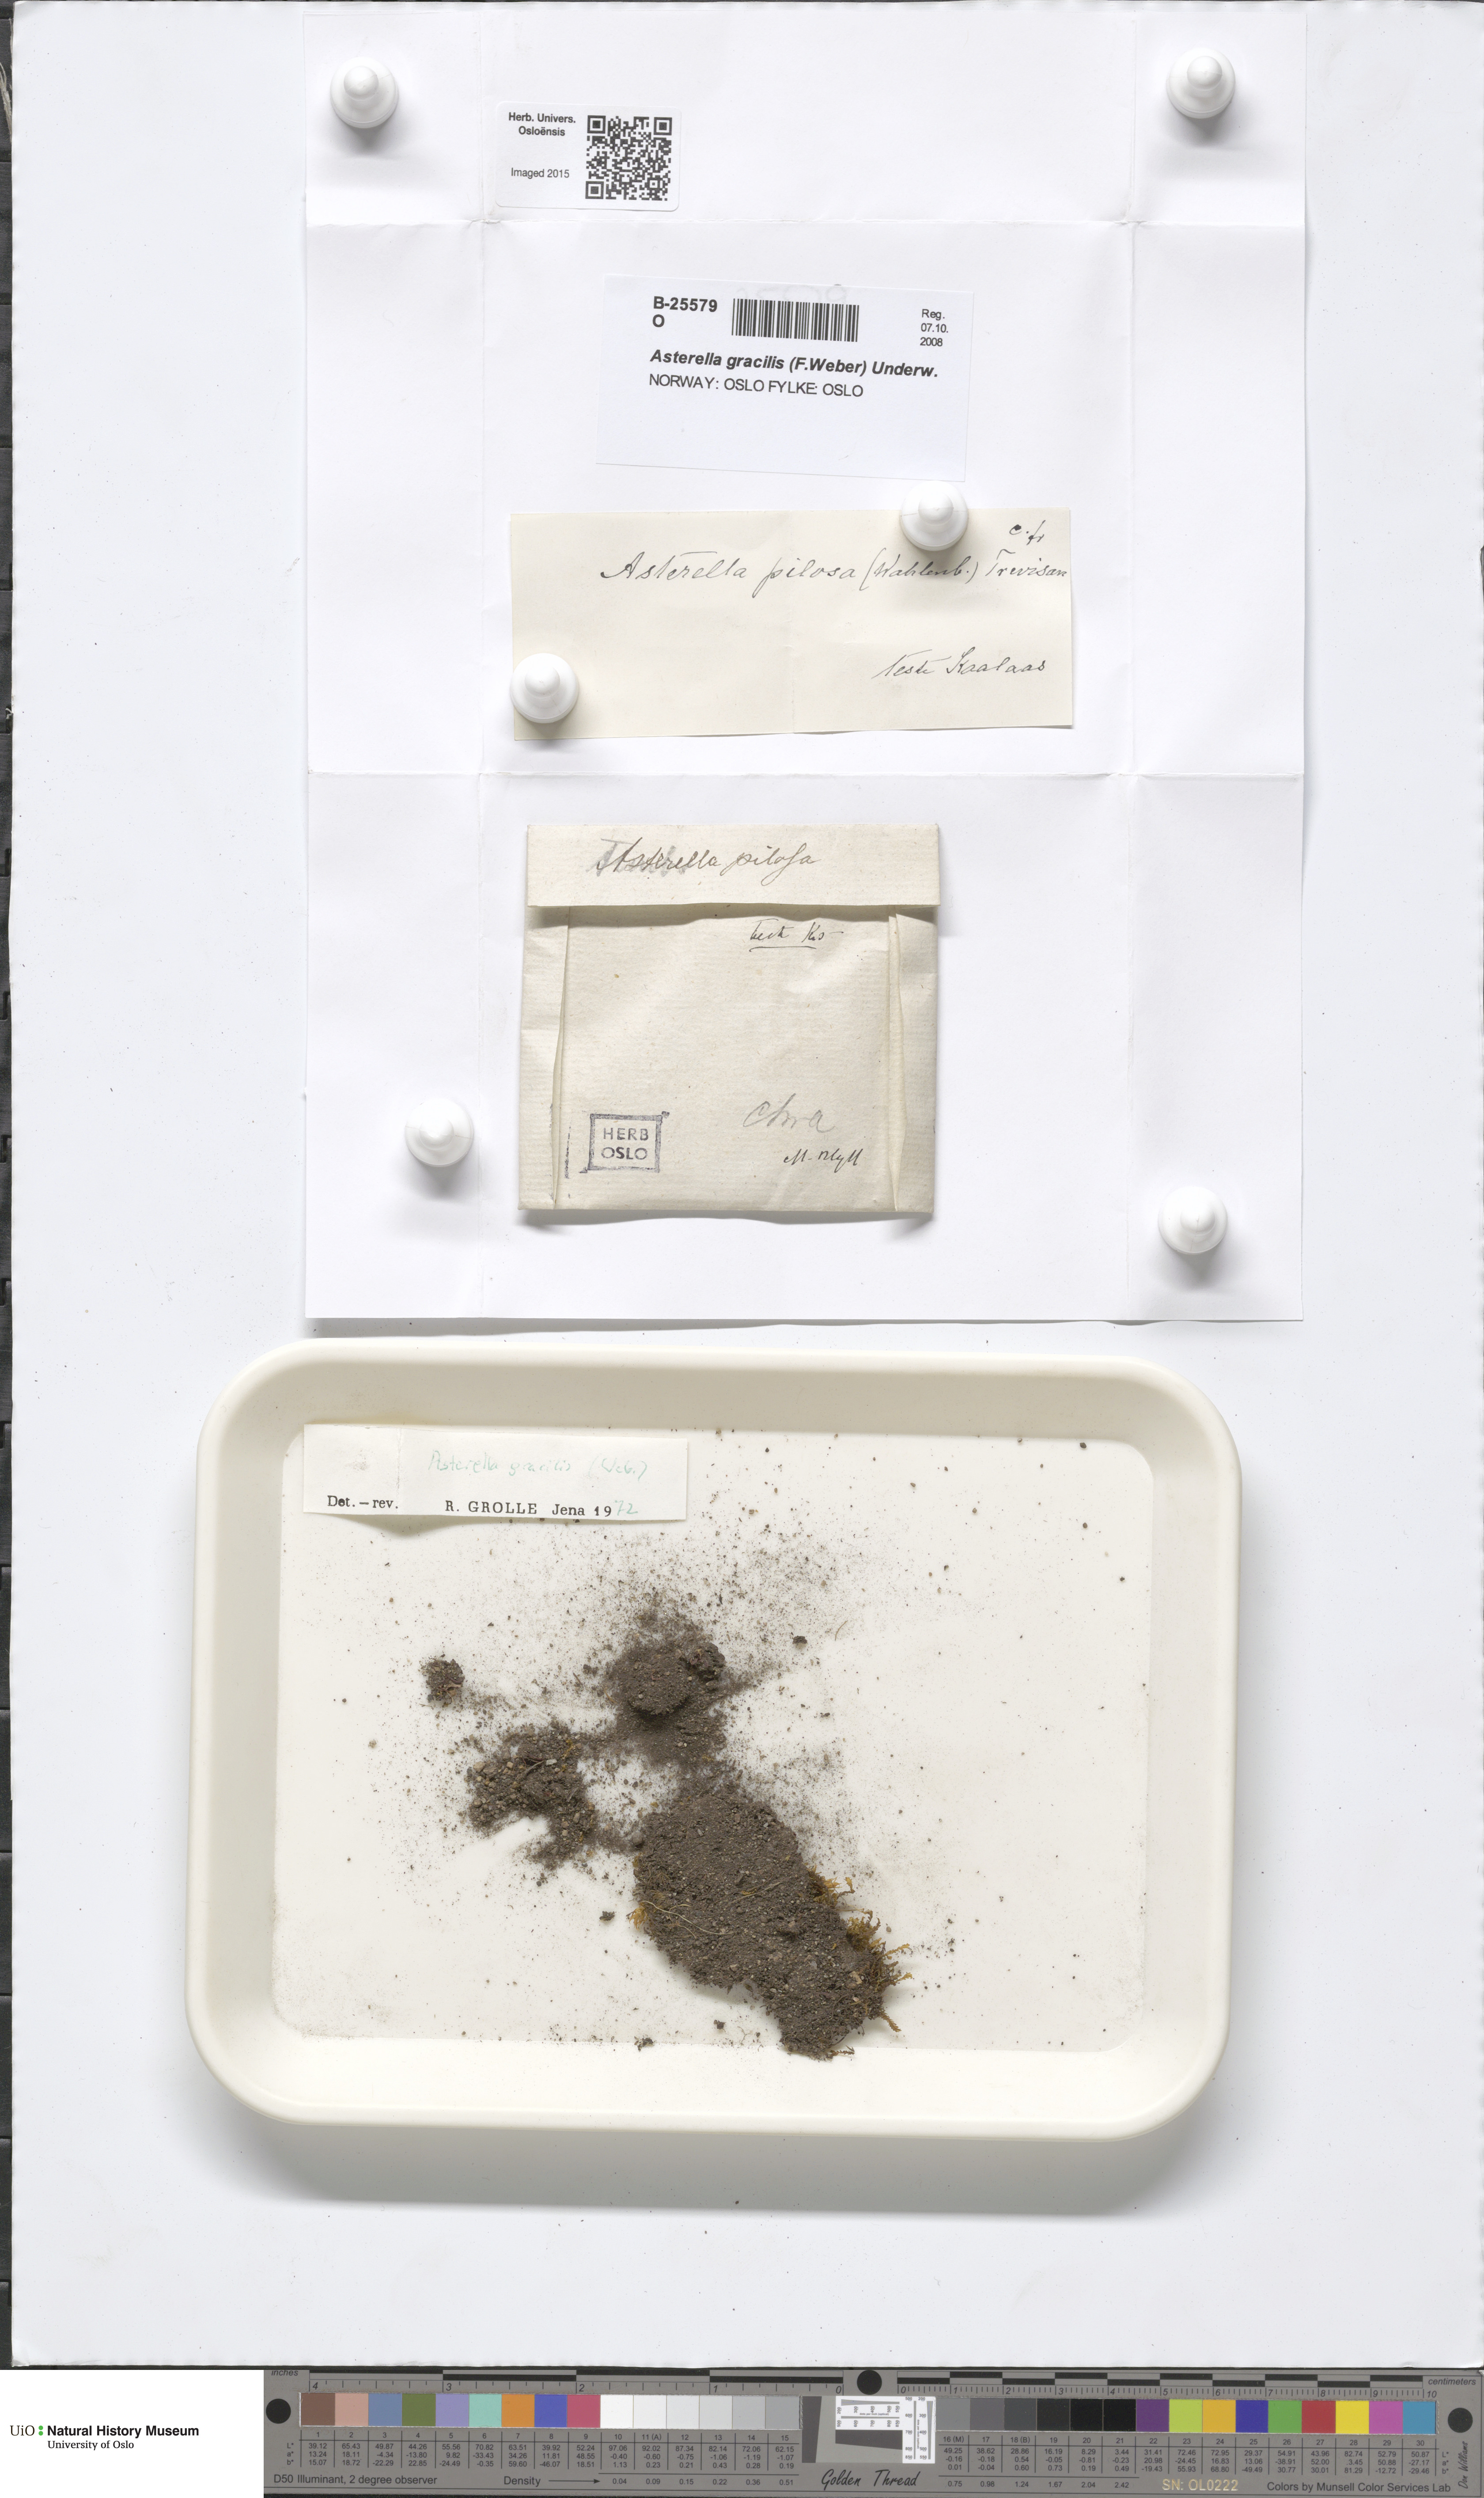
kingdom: Plantae
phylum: Marchantiophyta
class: Marchantiopsida
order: Marchantiales
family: Aytoniaceae
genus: Mannia
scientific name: Mannia gracilis
